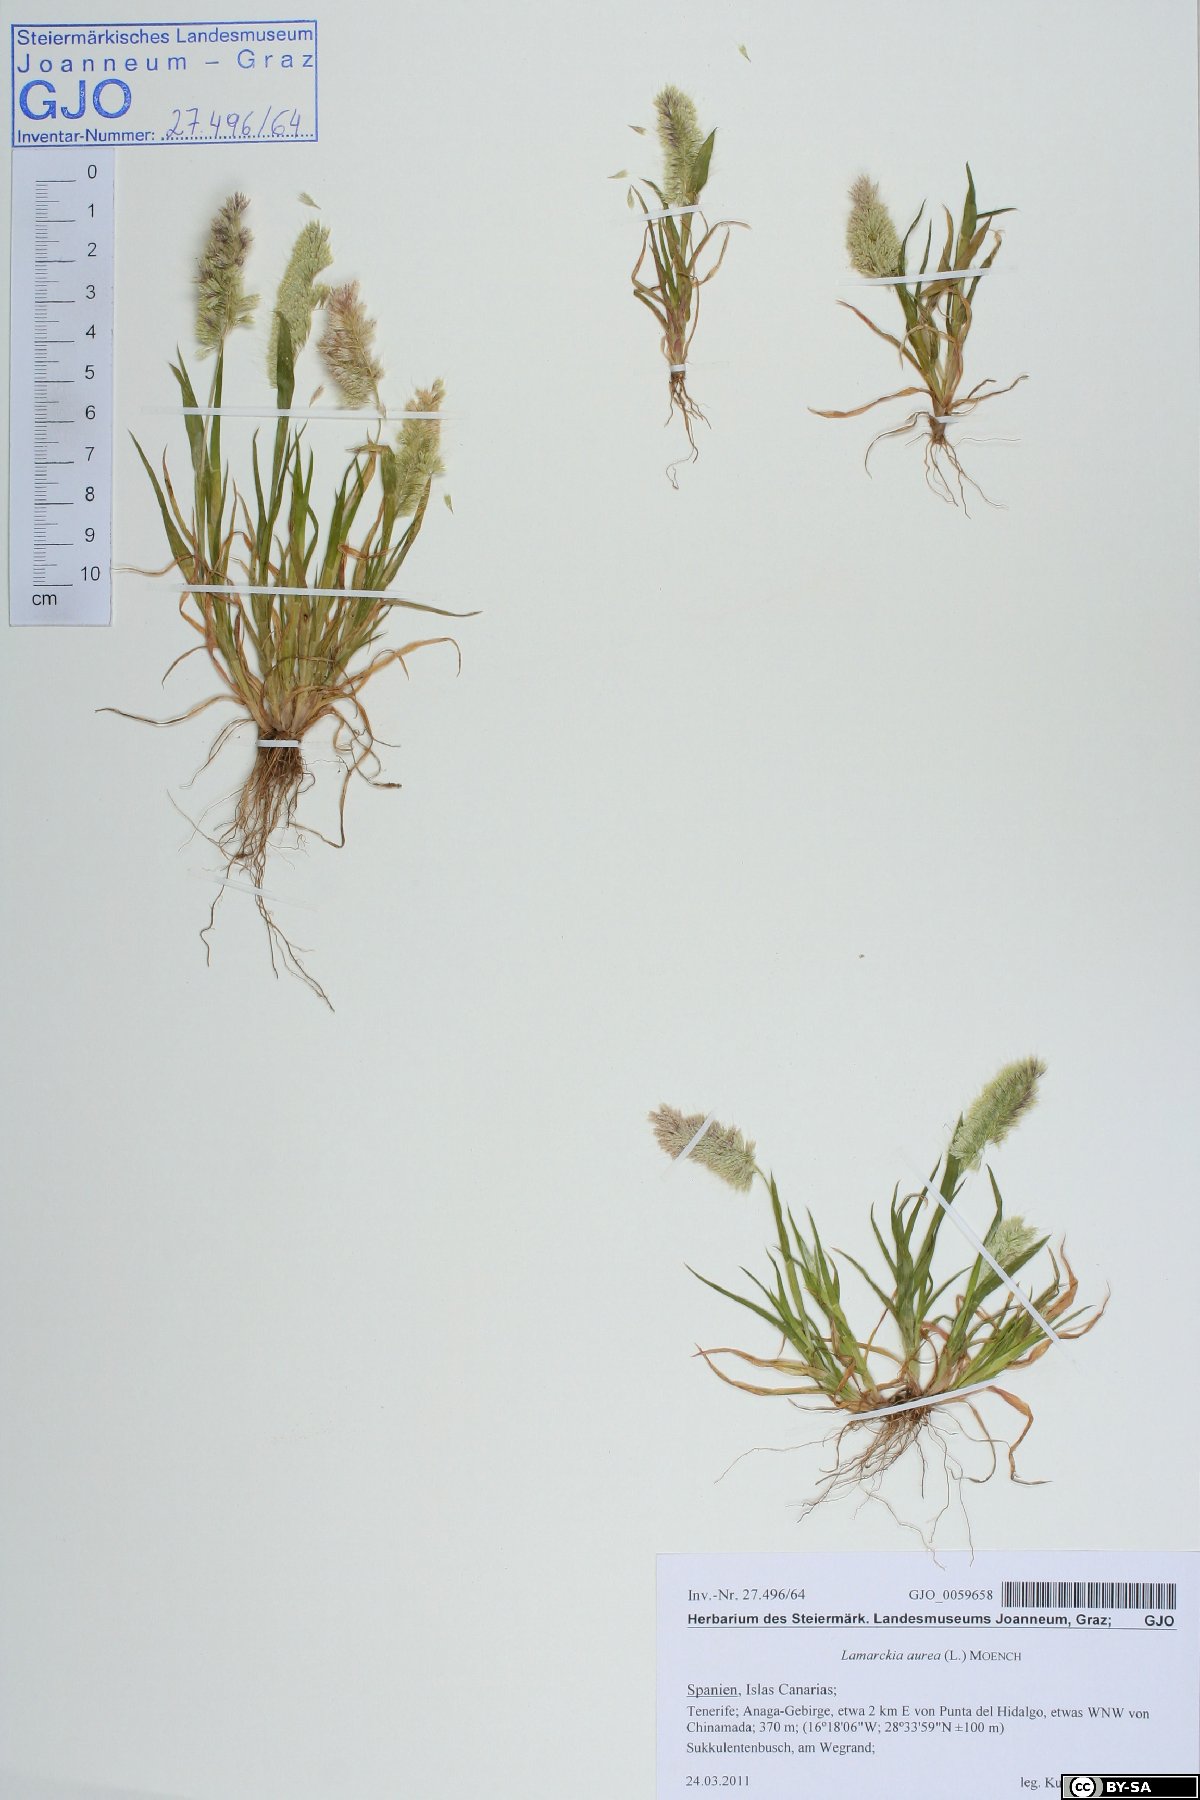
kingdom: Plantae
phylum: Tracheophyta
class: Liliopsida
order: Poales
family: Poaceae
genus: Lamarckia
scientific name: Lamarckia aurea
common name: Golden dog's-tail
